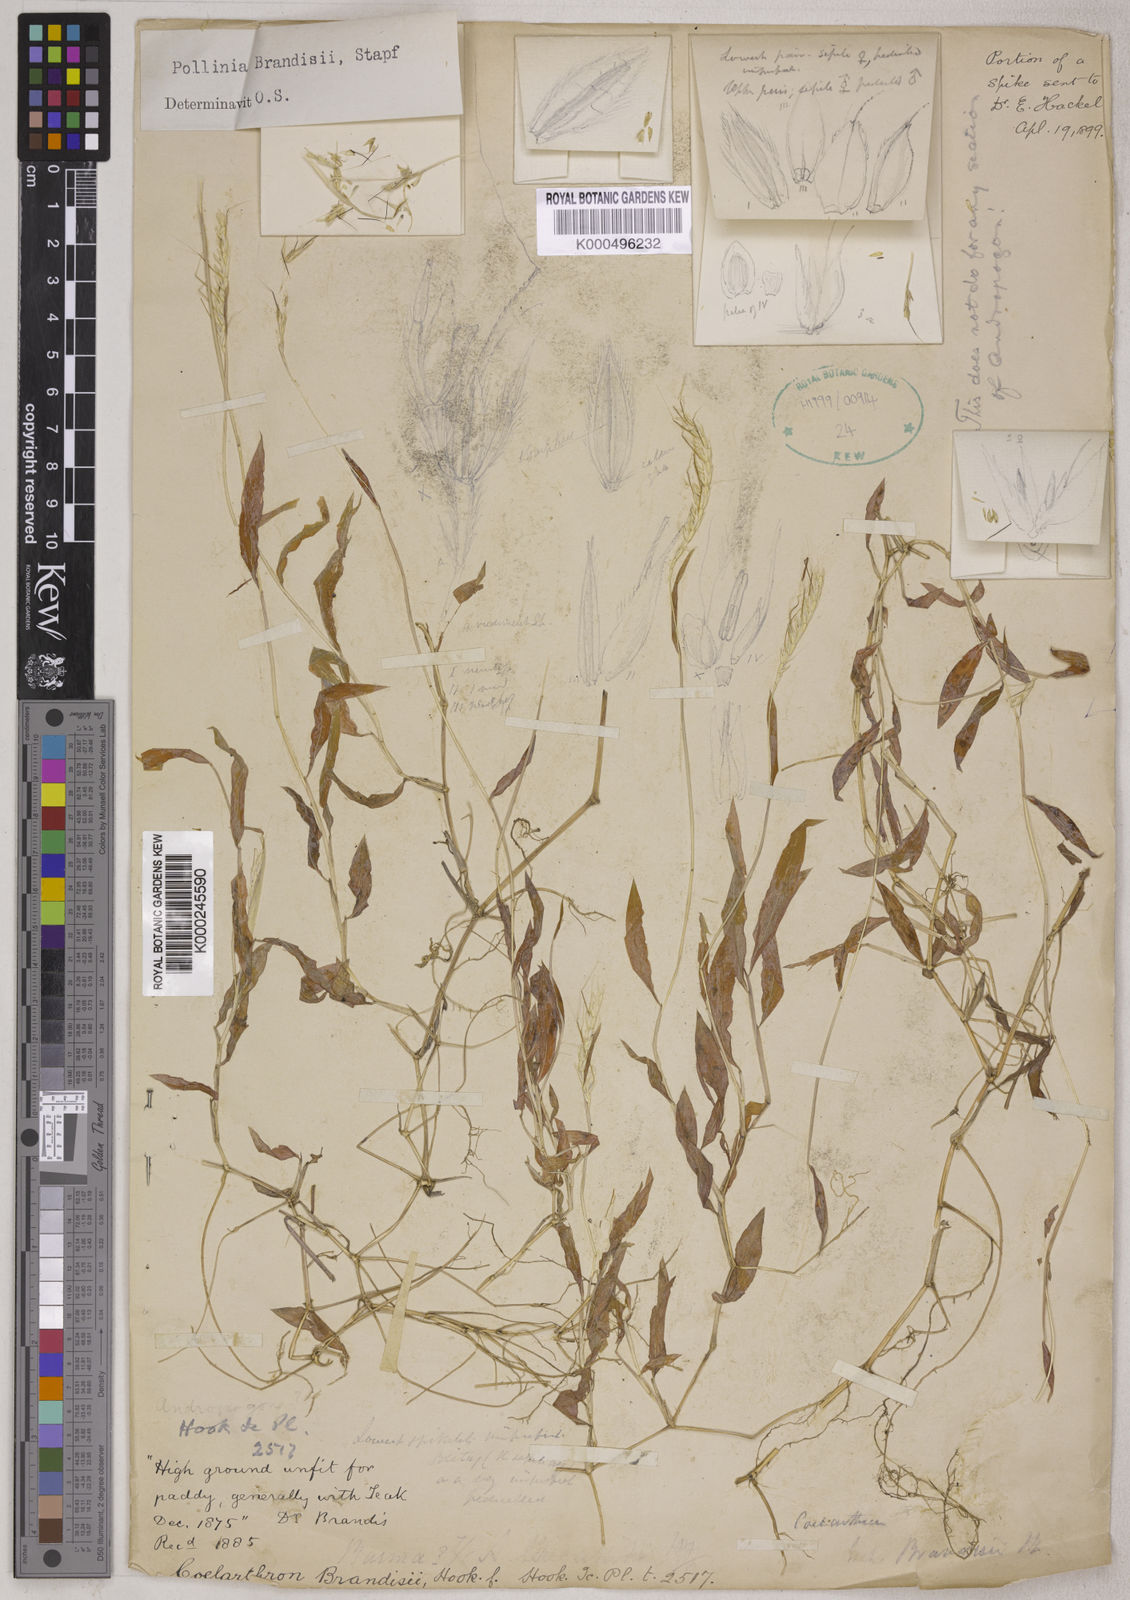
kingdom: Plantae
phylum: Tracheophyta
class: Liliopsida
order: Poales
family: Poaceae
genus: Microstegium
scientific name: Microstegium brandisii
